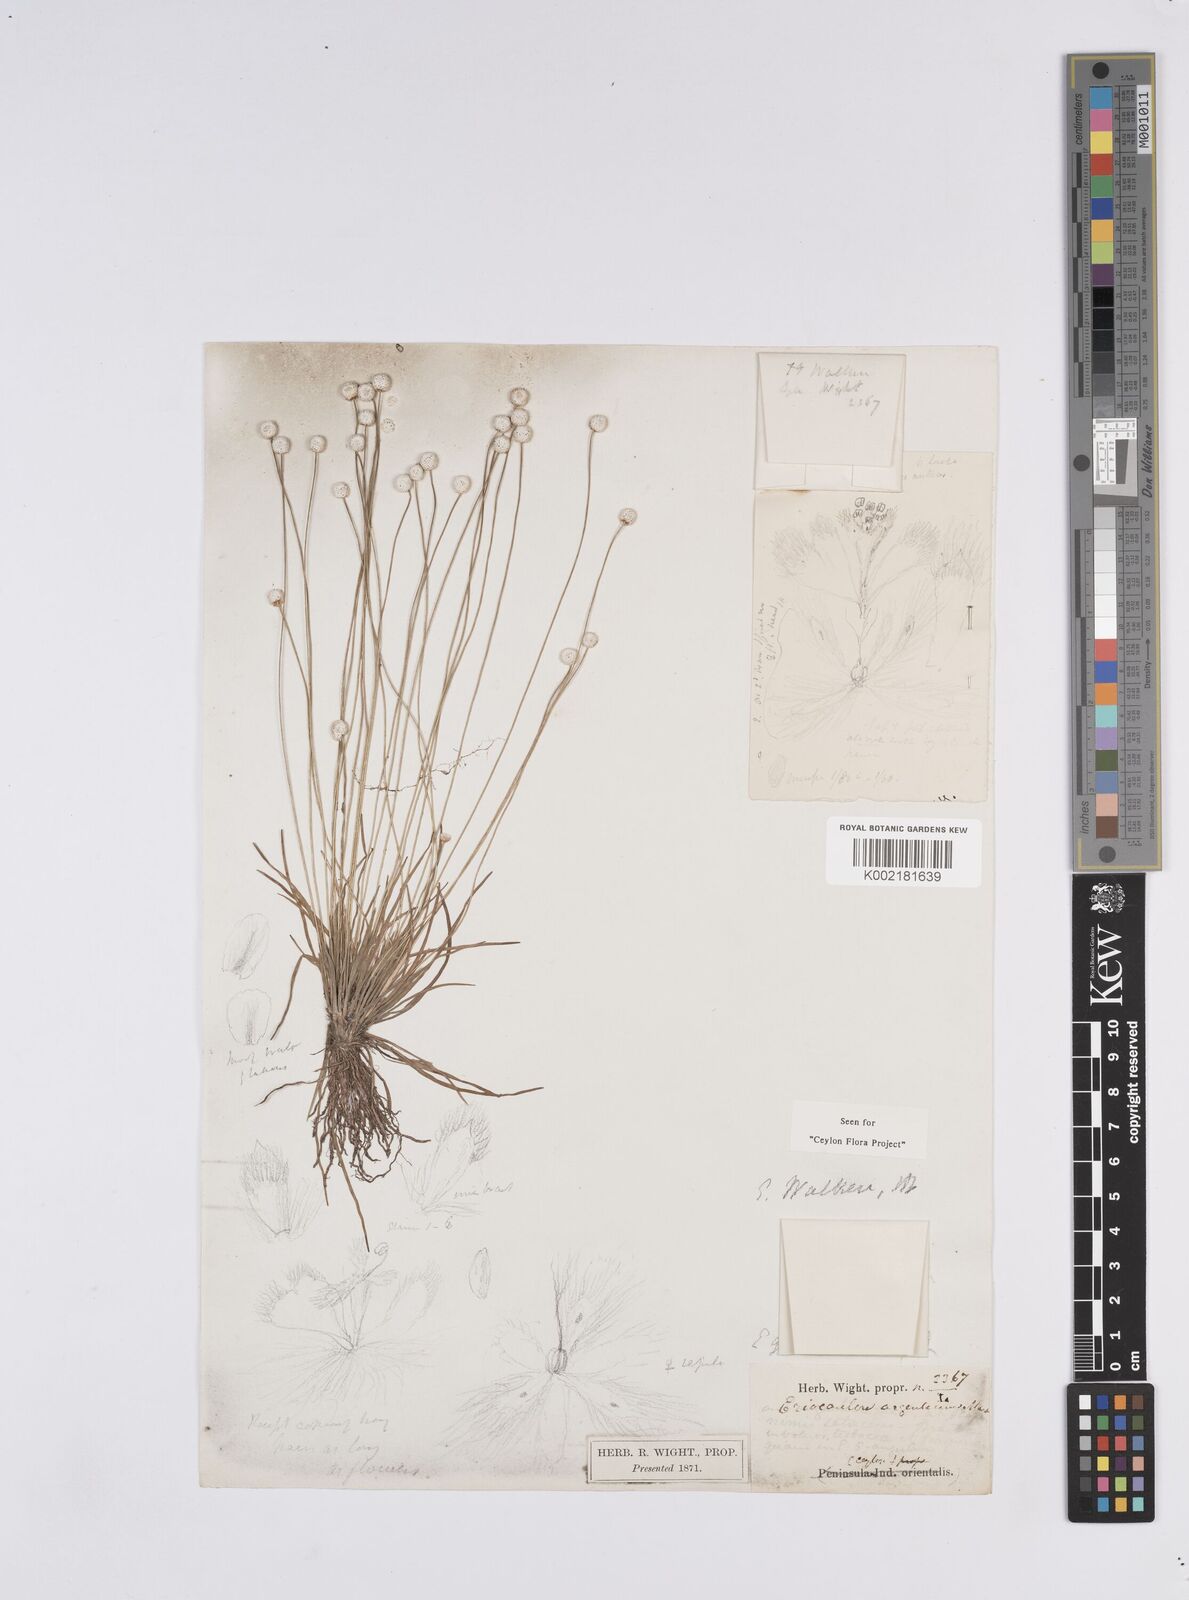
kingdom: Plantae
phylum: Tracheophyta
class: Liliopsida
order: Poales
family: Eriocaulaceae
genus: Eriocaulon
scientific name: Eriocaulon walkeri
